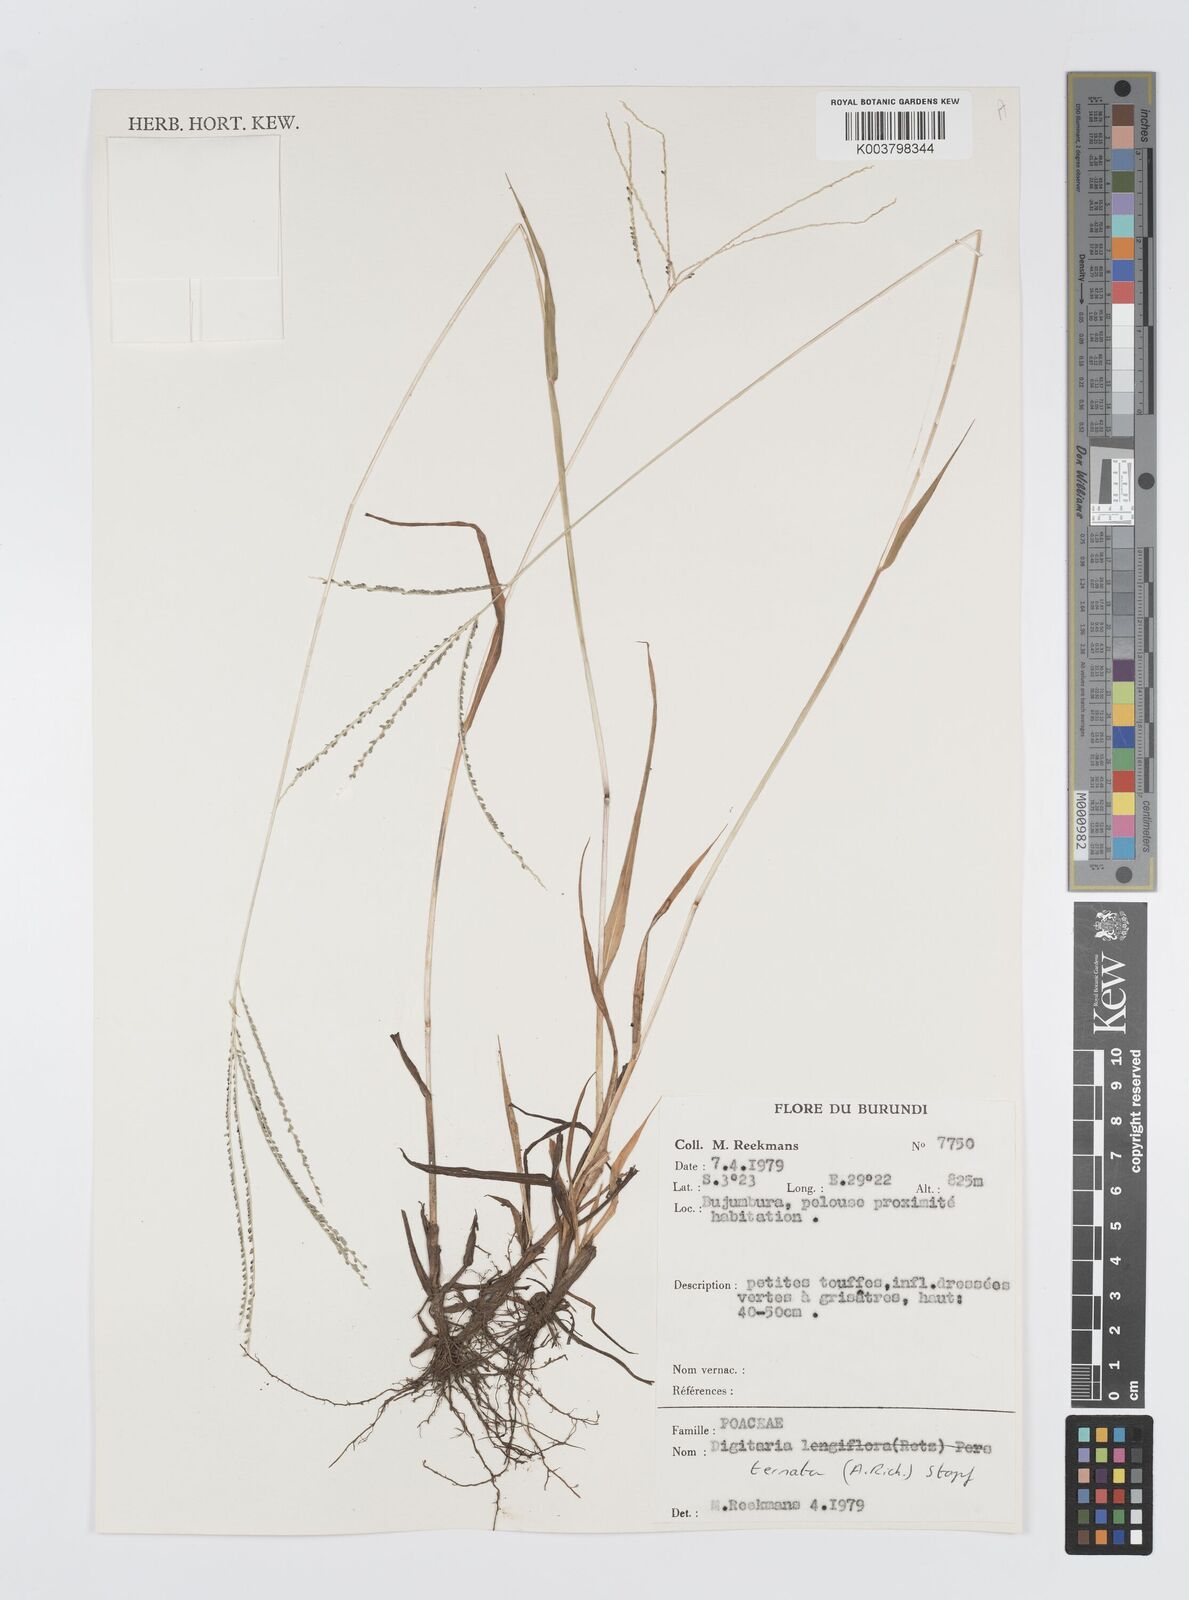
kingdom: Plantae
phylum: Tracheophyta
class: Liliopsida
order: Poales
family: Poaceae
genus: Digitaria
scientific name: Digitaria ternata
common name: Blackseed crabgrass
